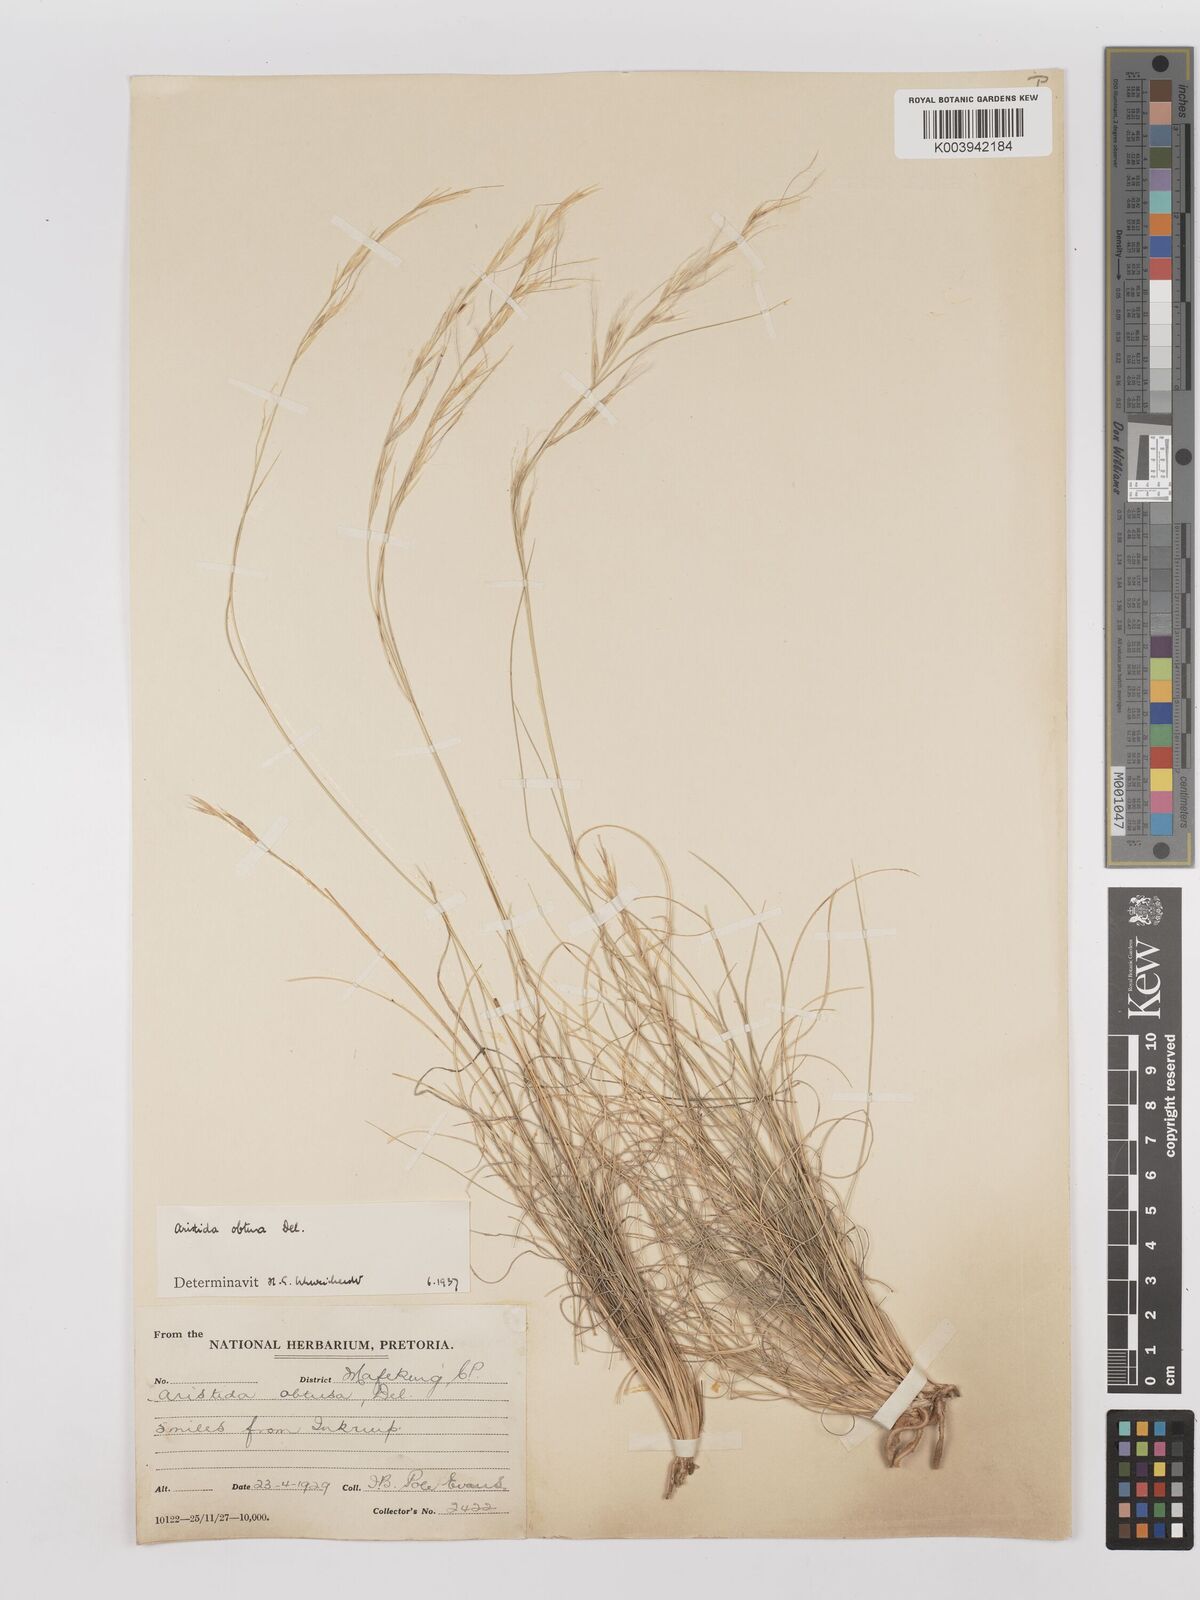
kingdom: Plantae
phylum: Tracheophyta
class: Liliopsida
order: Poales
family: Poaceae
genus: Stipagrostis
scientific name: Stipagrostis obtusa
